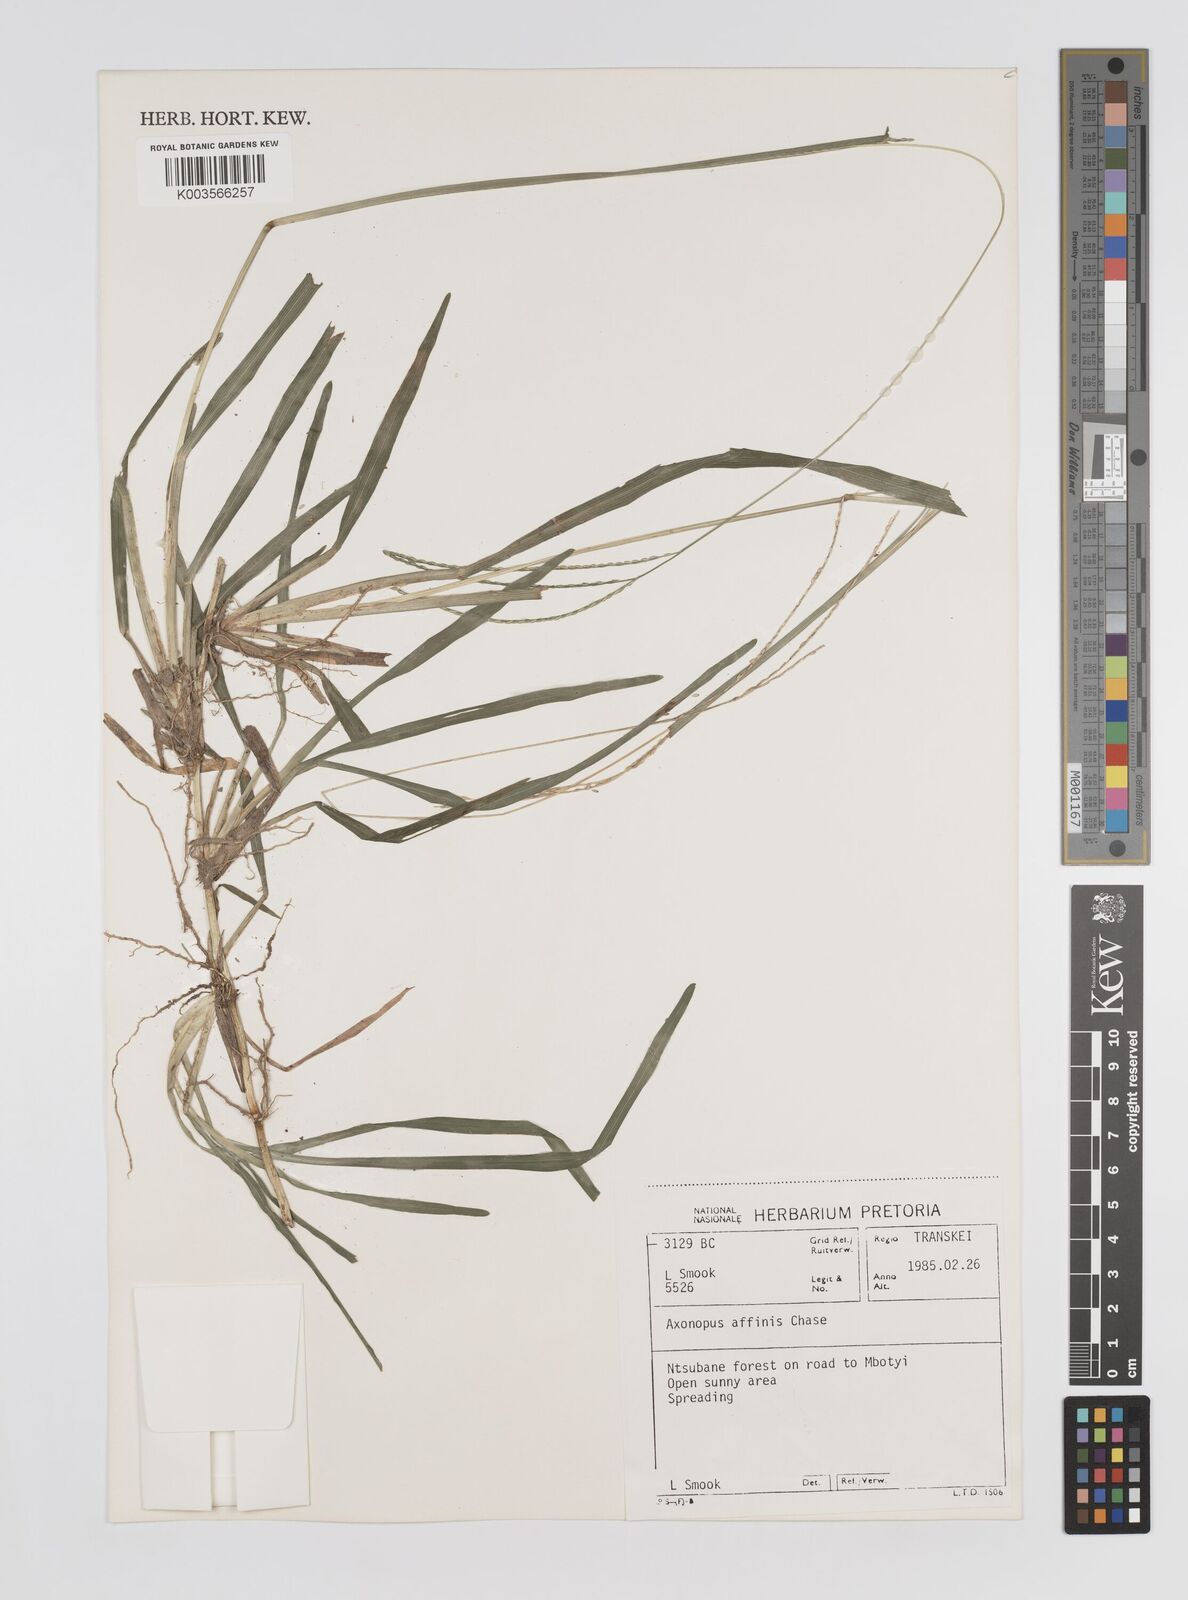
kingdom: Plantae
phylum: Tracheophyta
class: Liliopsida
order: Poales
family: Poaceae
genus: Axonopus
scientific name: Axonopus fissifolius
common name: Common carpetgrass
